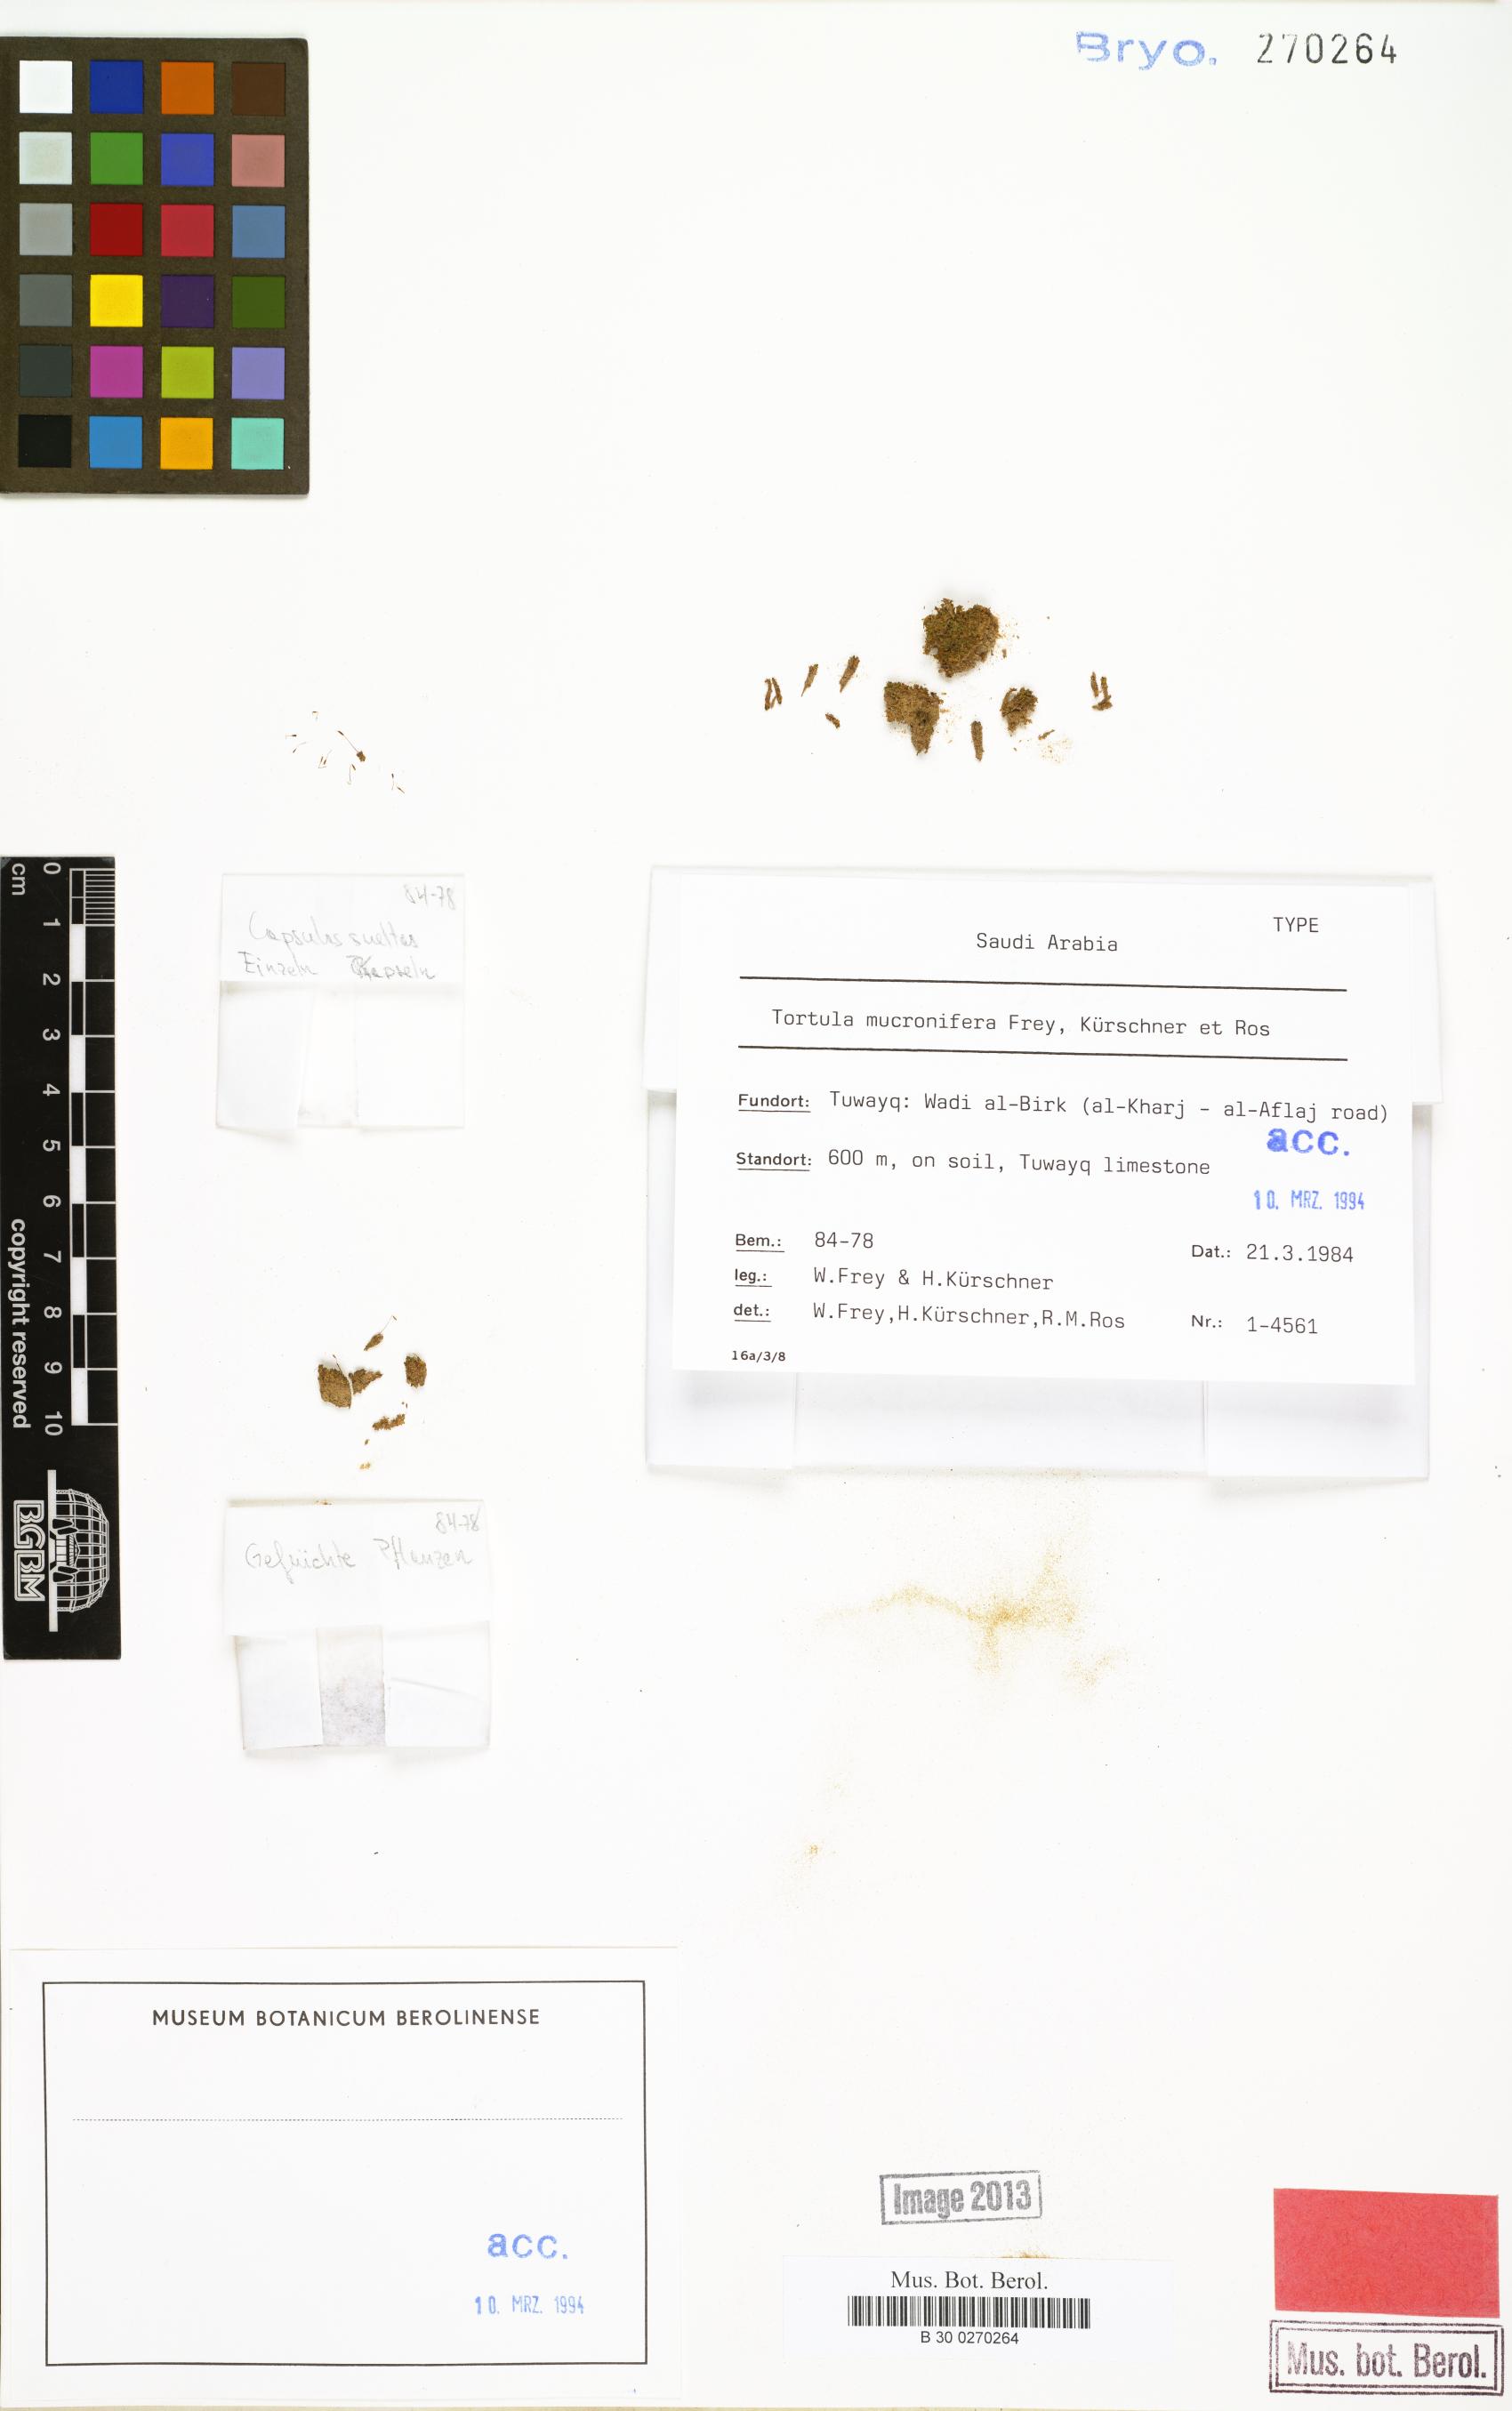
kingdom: Plantae
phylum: Bryophyta
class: Bryopsida
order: Pottiales
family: Pottiaceae
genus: Tortula
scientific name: Tortula mucronifera
